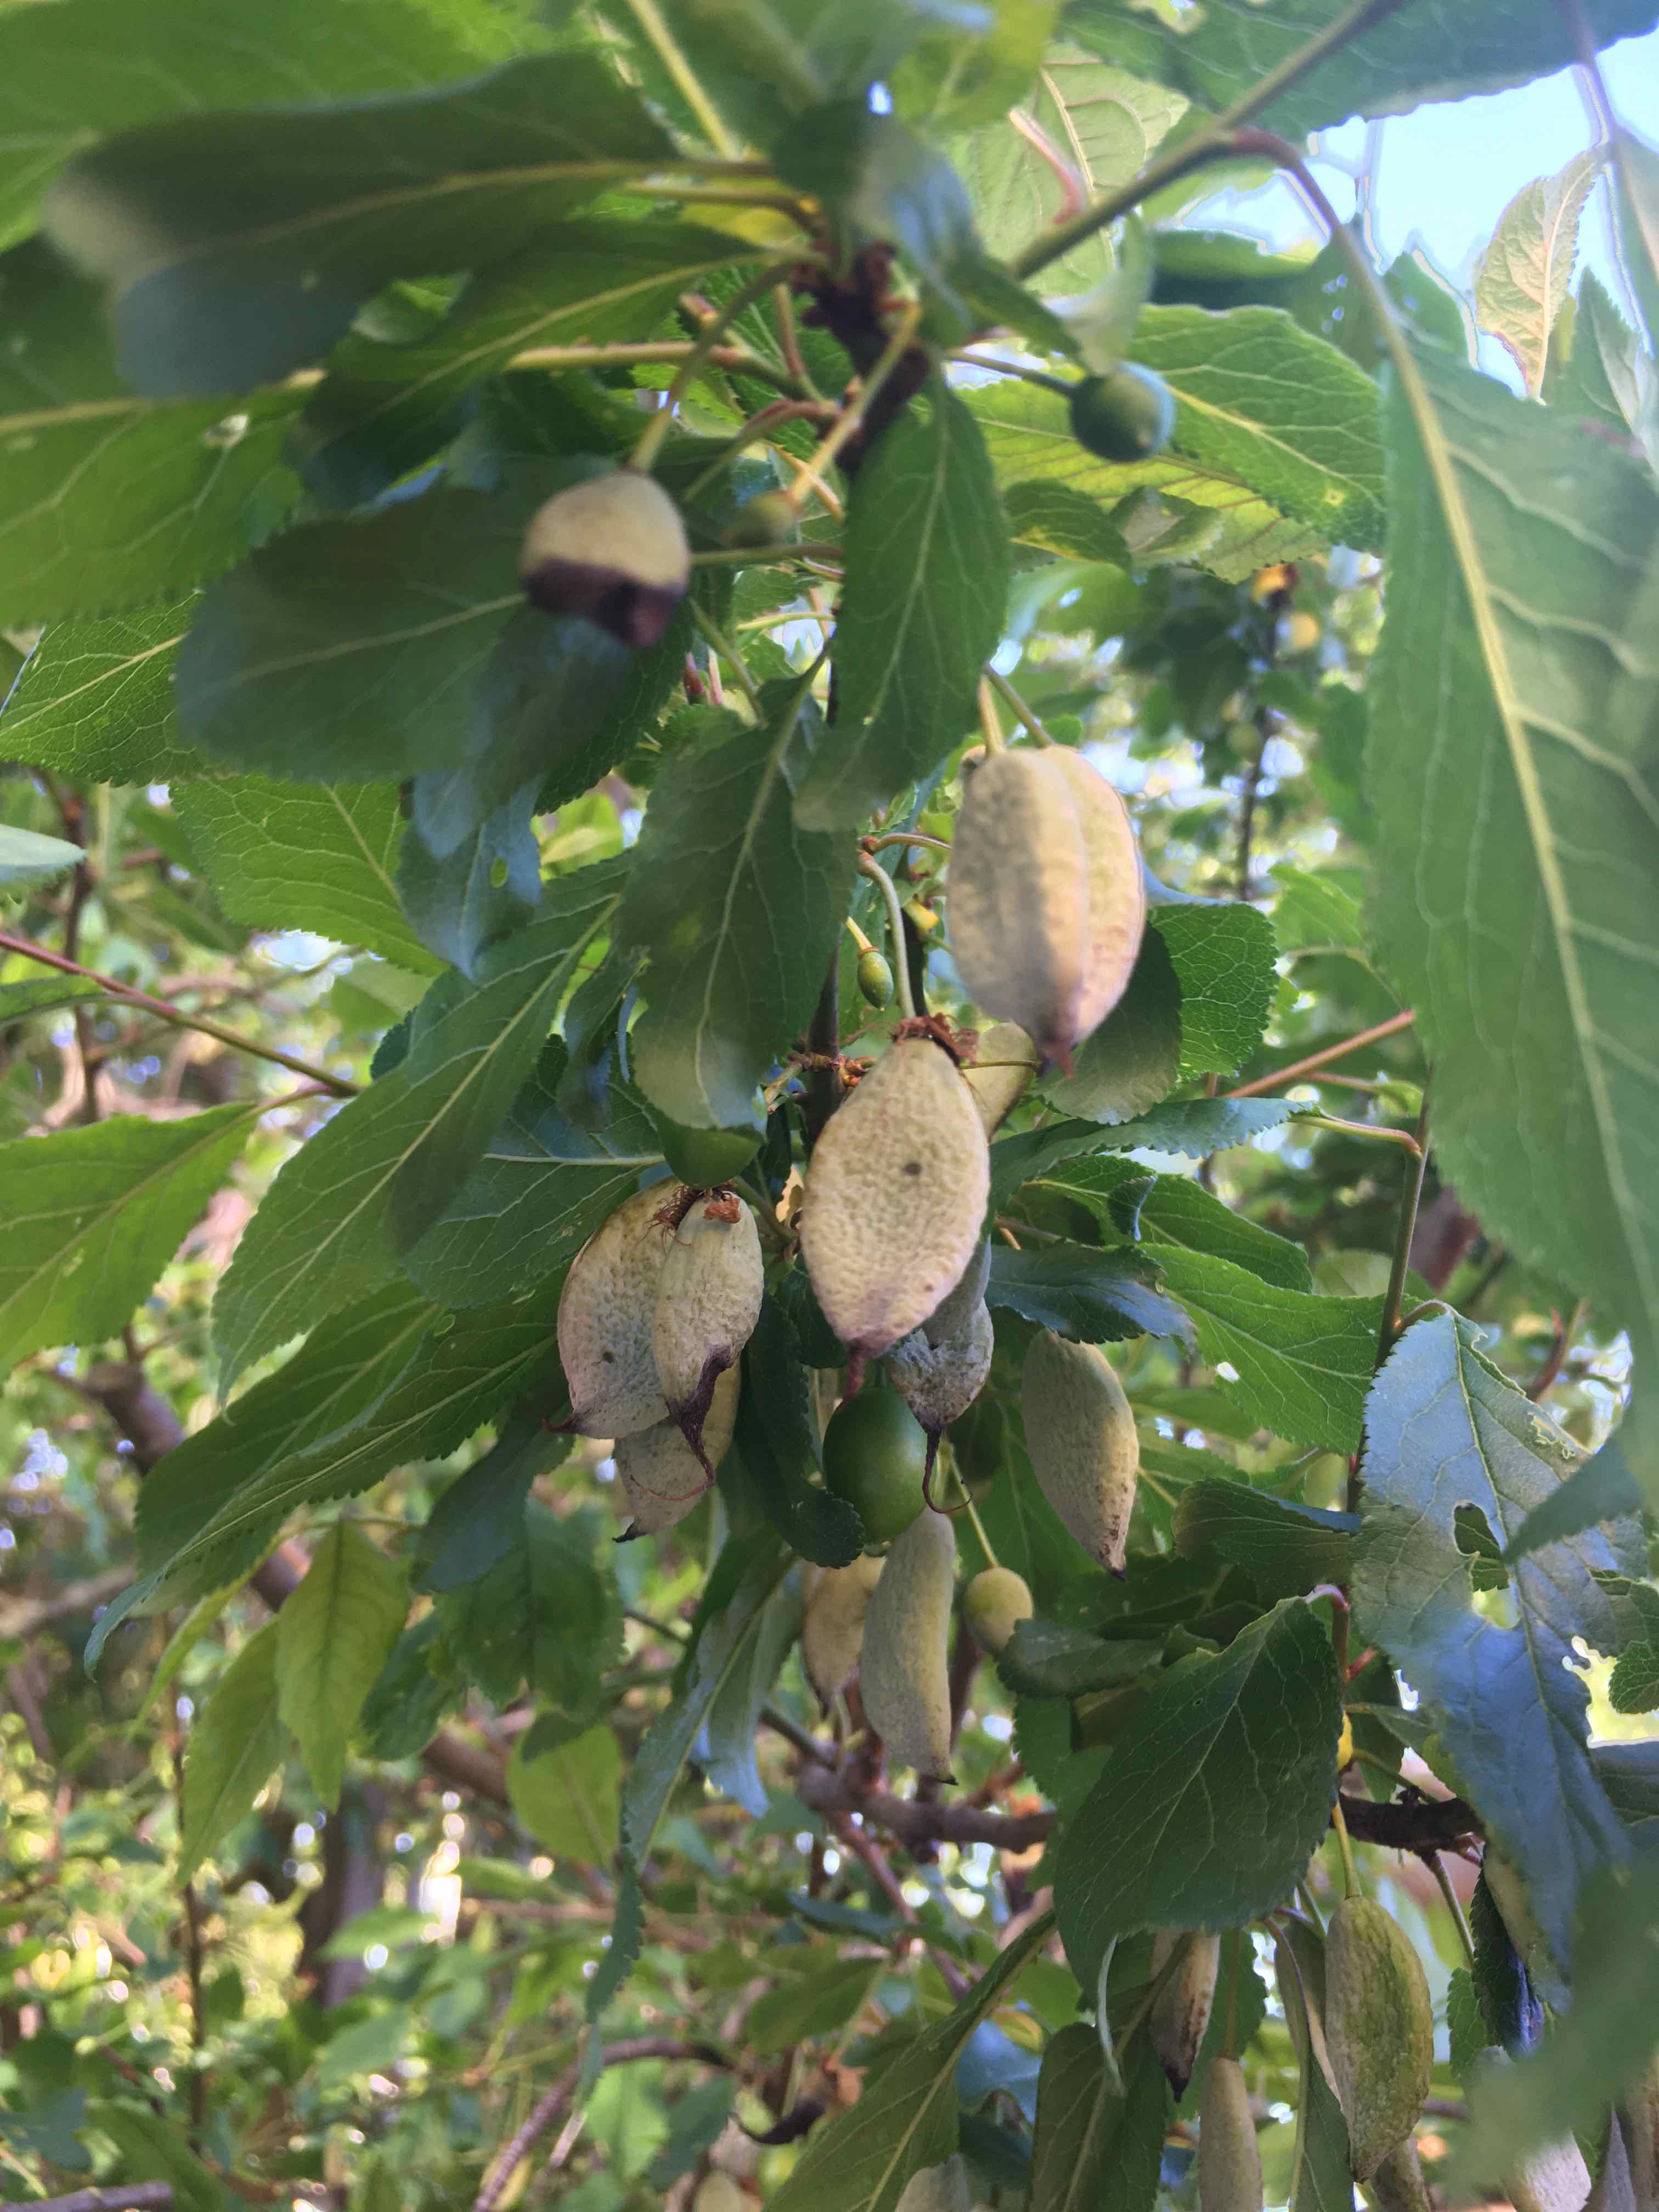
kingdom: Fungi
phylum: Ascomycota
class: Taphrinomycetes
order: Taphrinales
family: Taphrinaceae
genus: Taphrina
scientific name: Taphrina pruni
